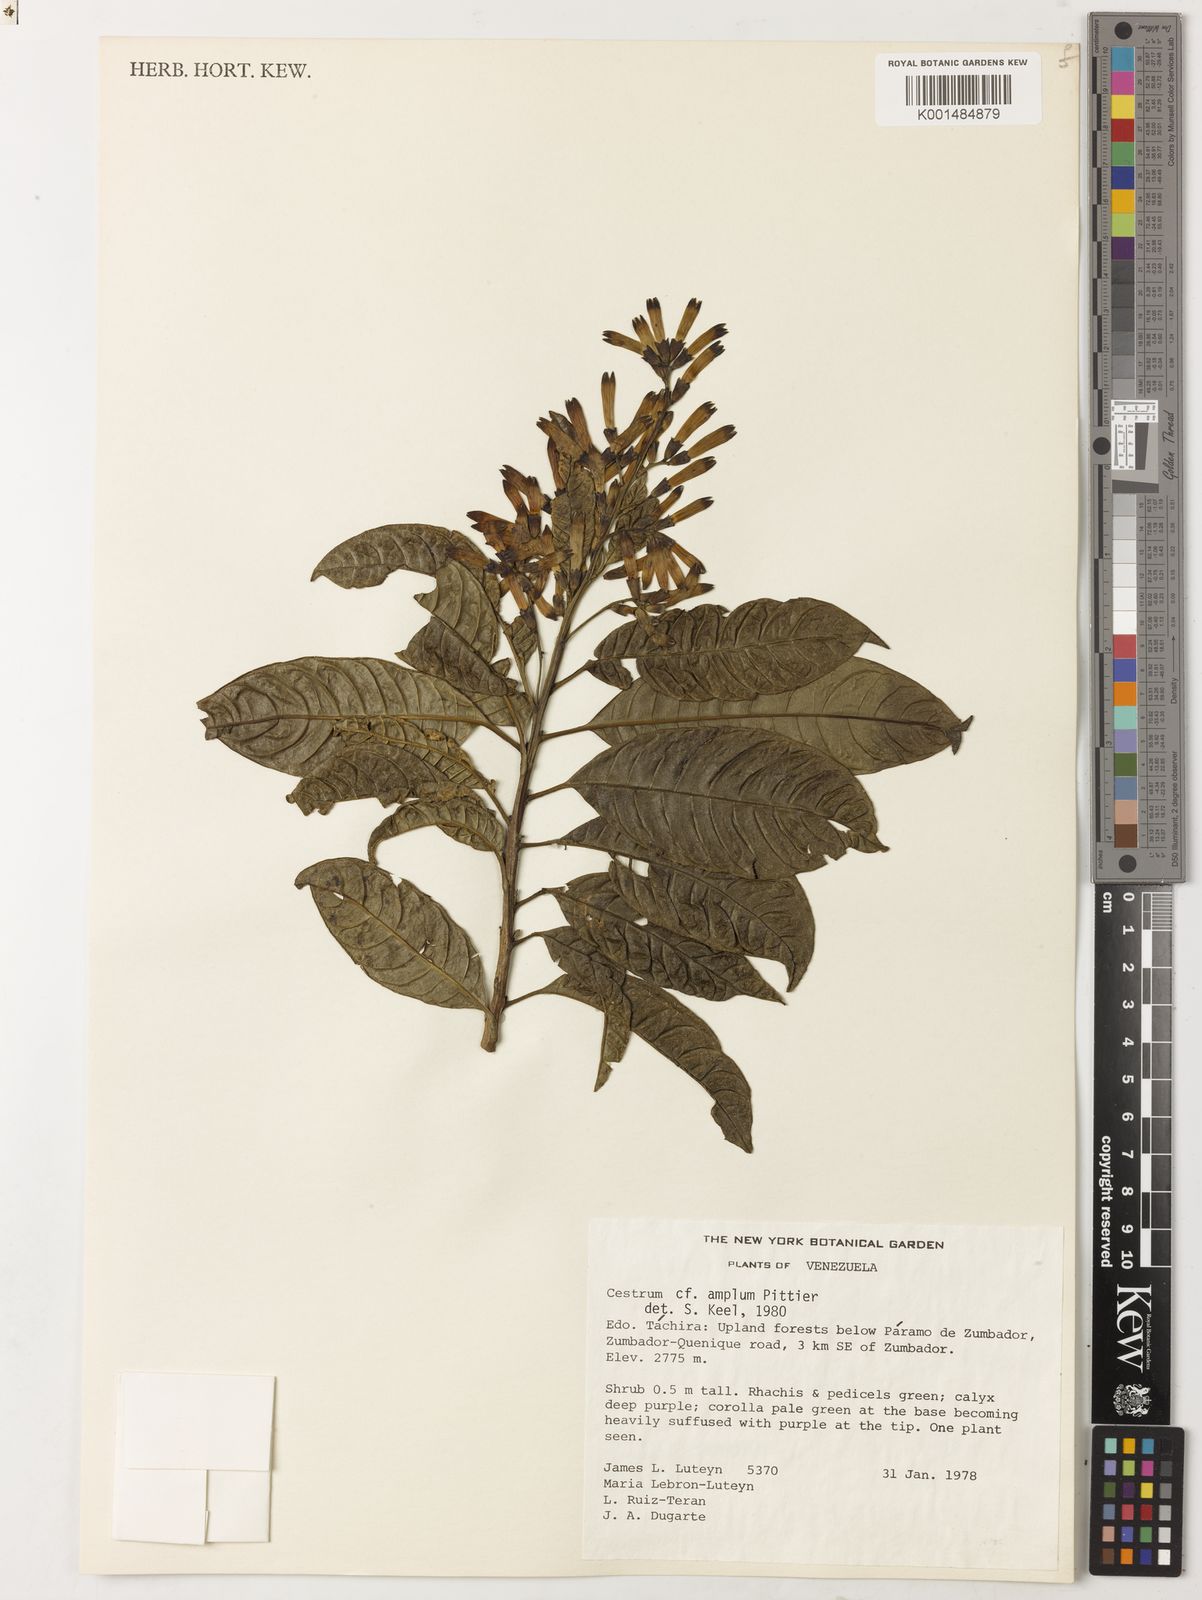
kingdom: Plantae
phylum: Tracheophyta
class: Magnoliopsida
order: Solanales
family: Solanaceae
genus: Cestrum
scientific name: Cestrum lindenii
